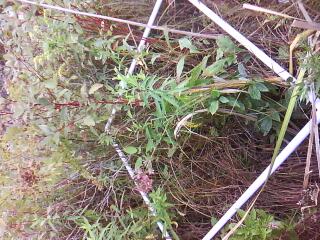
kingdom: Plantae
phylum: Tracheophyta
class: Magnoliopsida
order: Lamiales
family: Lamiaceae
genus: Mentha
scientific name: Mentha canadensis
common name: American corn mint
